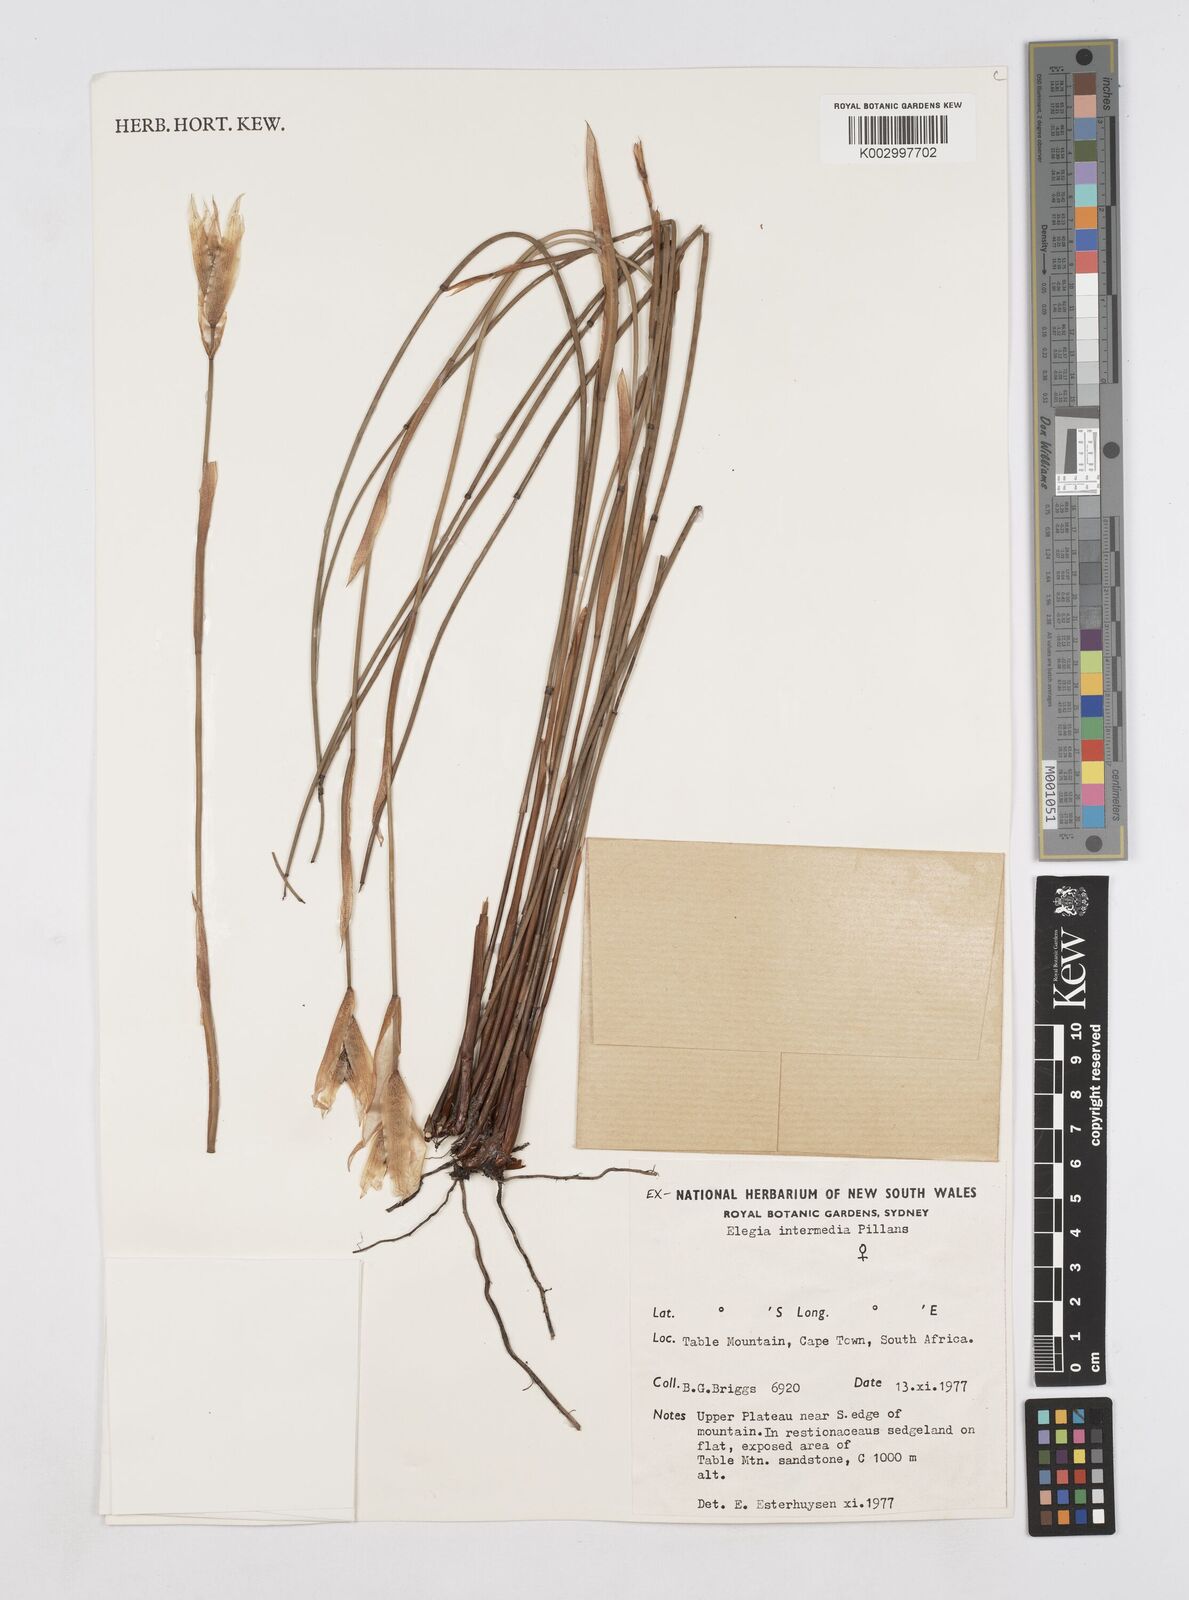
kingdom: Plantae
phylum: Tracheophyta
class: Liliopsida
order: Poales
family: Restionaceae
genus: Elegia
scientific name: Elegia intermedia
